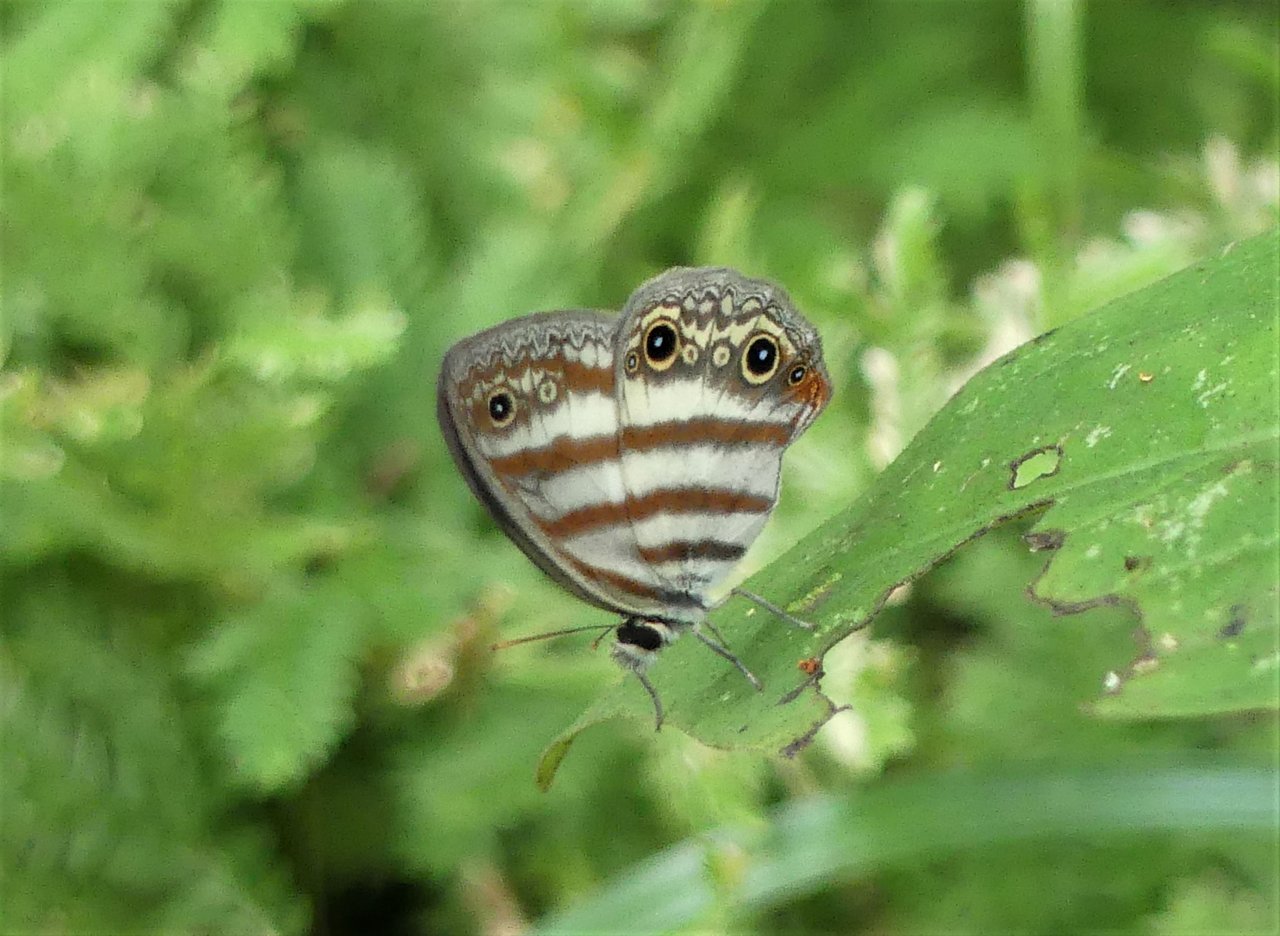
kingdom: Animalia
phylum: Arthropoda
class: Insecta
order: Lepidoptera
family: Nymphalidae
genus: Euptychia
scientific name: Euptychia mollina
